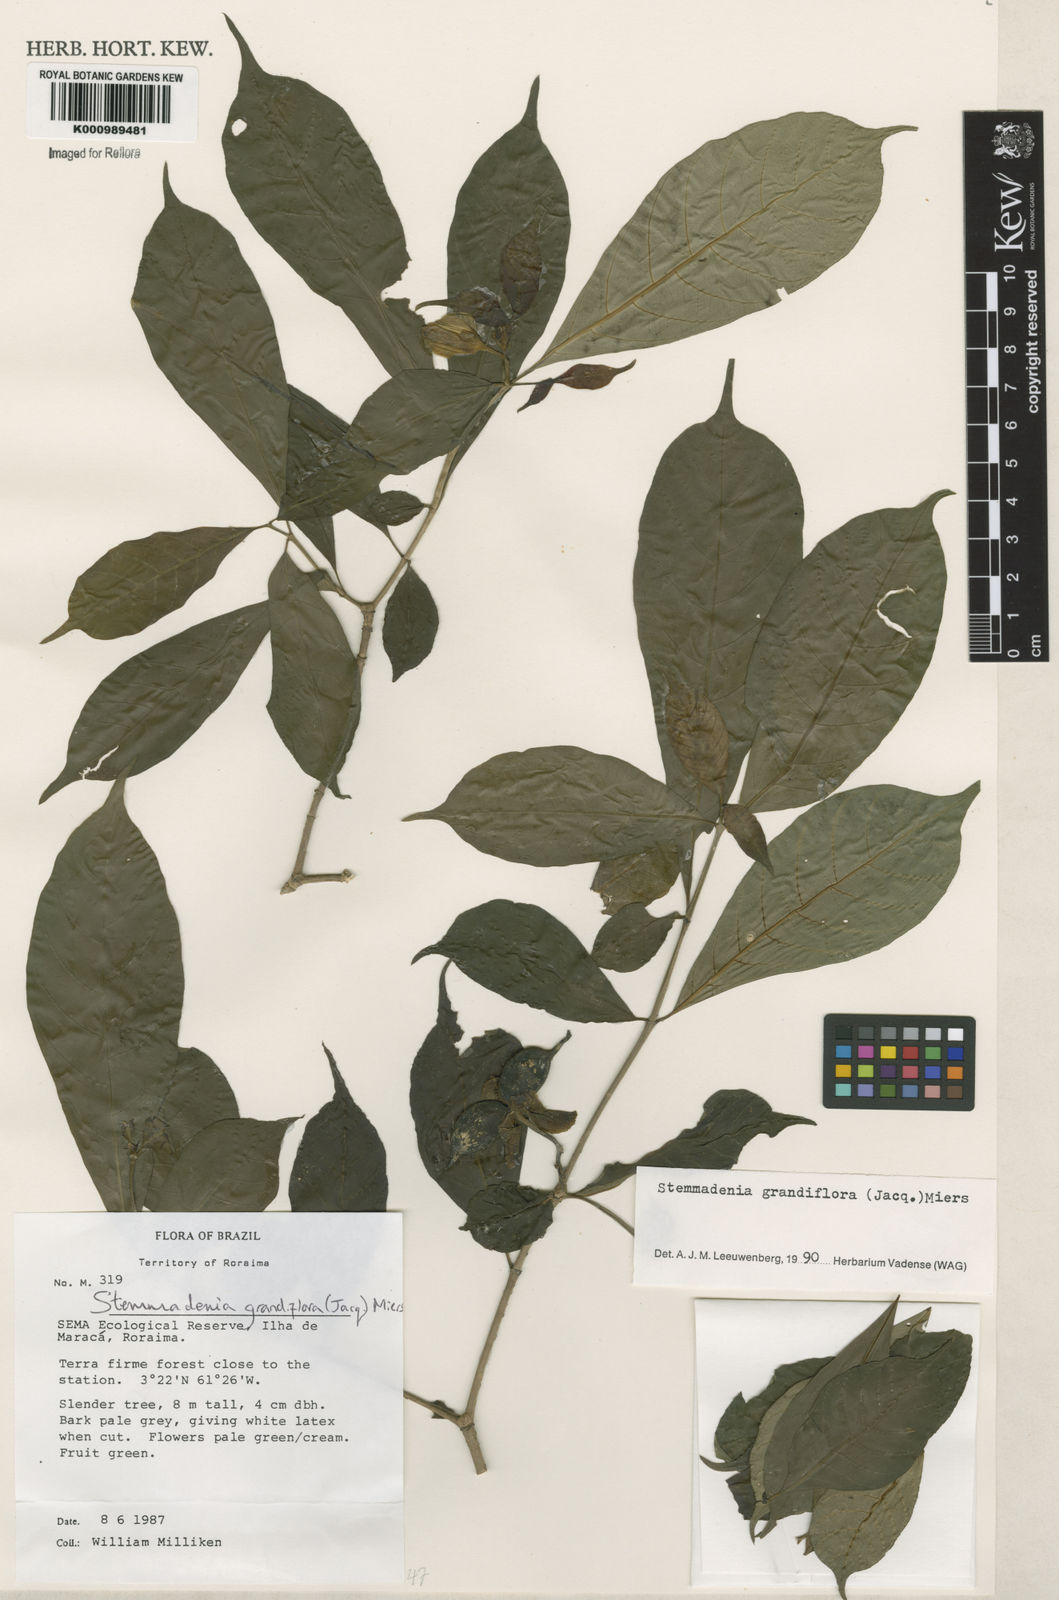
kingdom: Plantae
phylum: Tracheophyta
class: Magnoliopsida
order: Gentianales
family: Apocynaceae
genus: Tabernaemontana
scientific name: Tabernaemontana grandiflora
